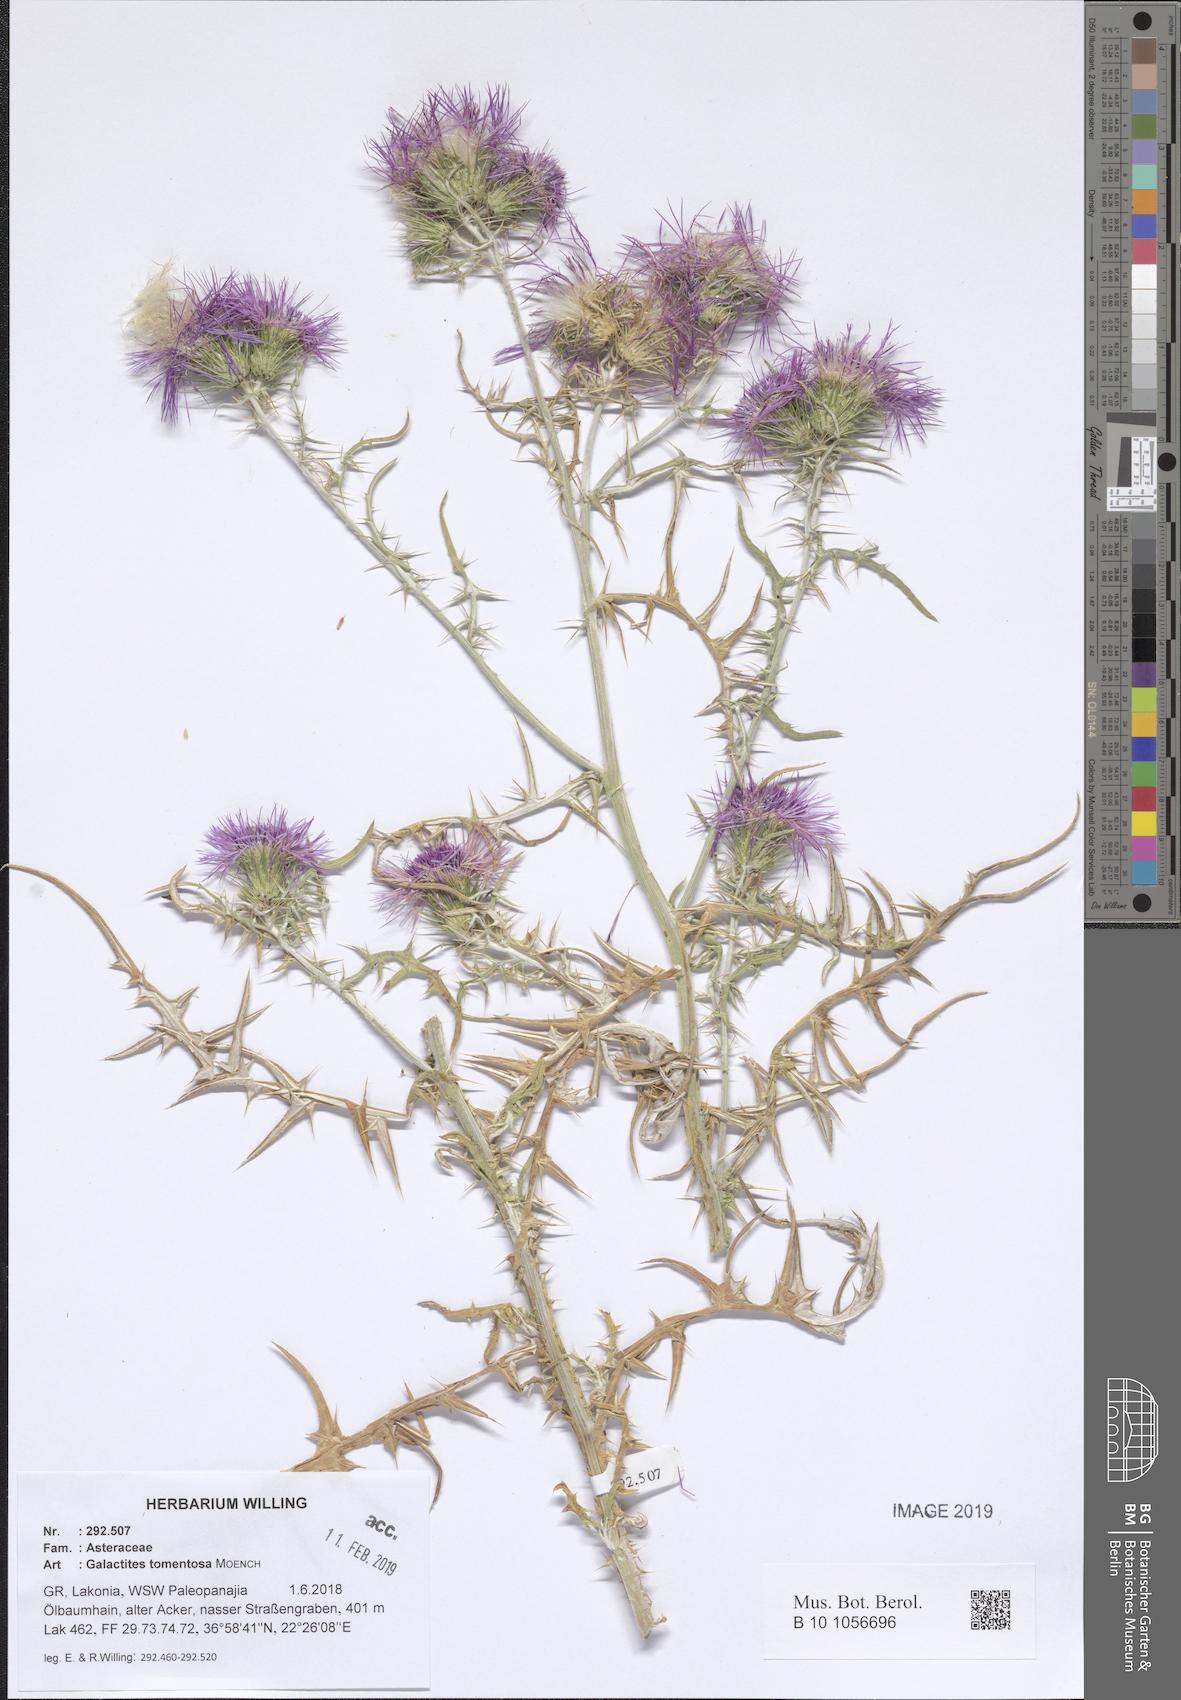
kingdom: Plantae
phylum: Tracheophyta
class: Magnoliopsida
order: Asterales
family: Asteraceae
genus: Galactites
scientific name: Galactites tomentosa
